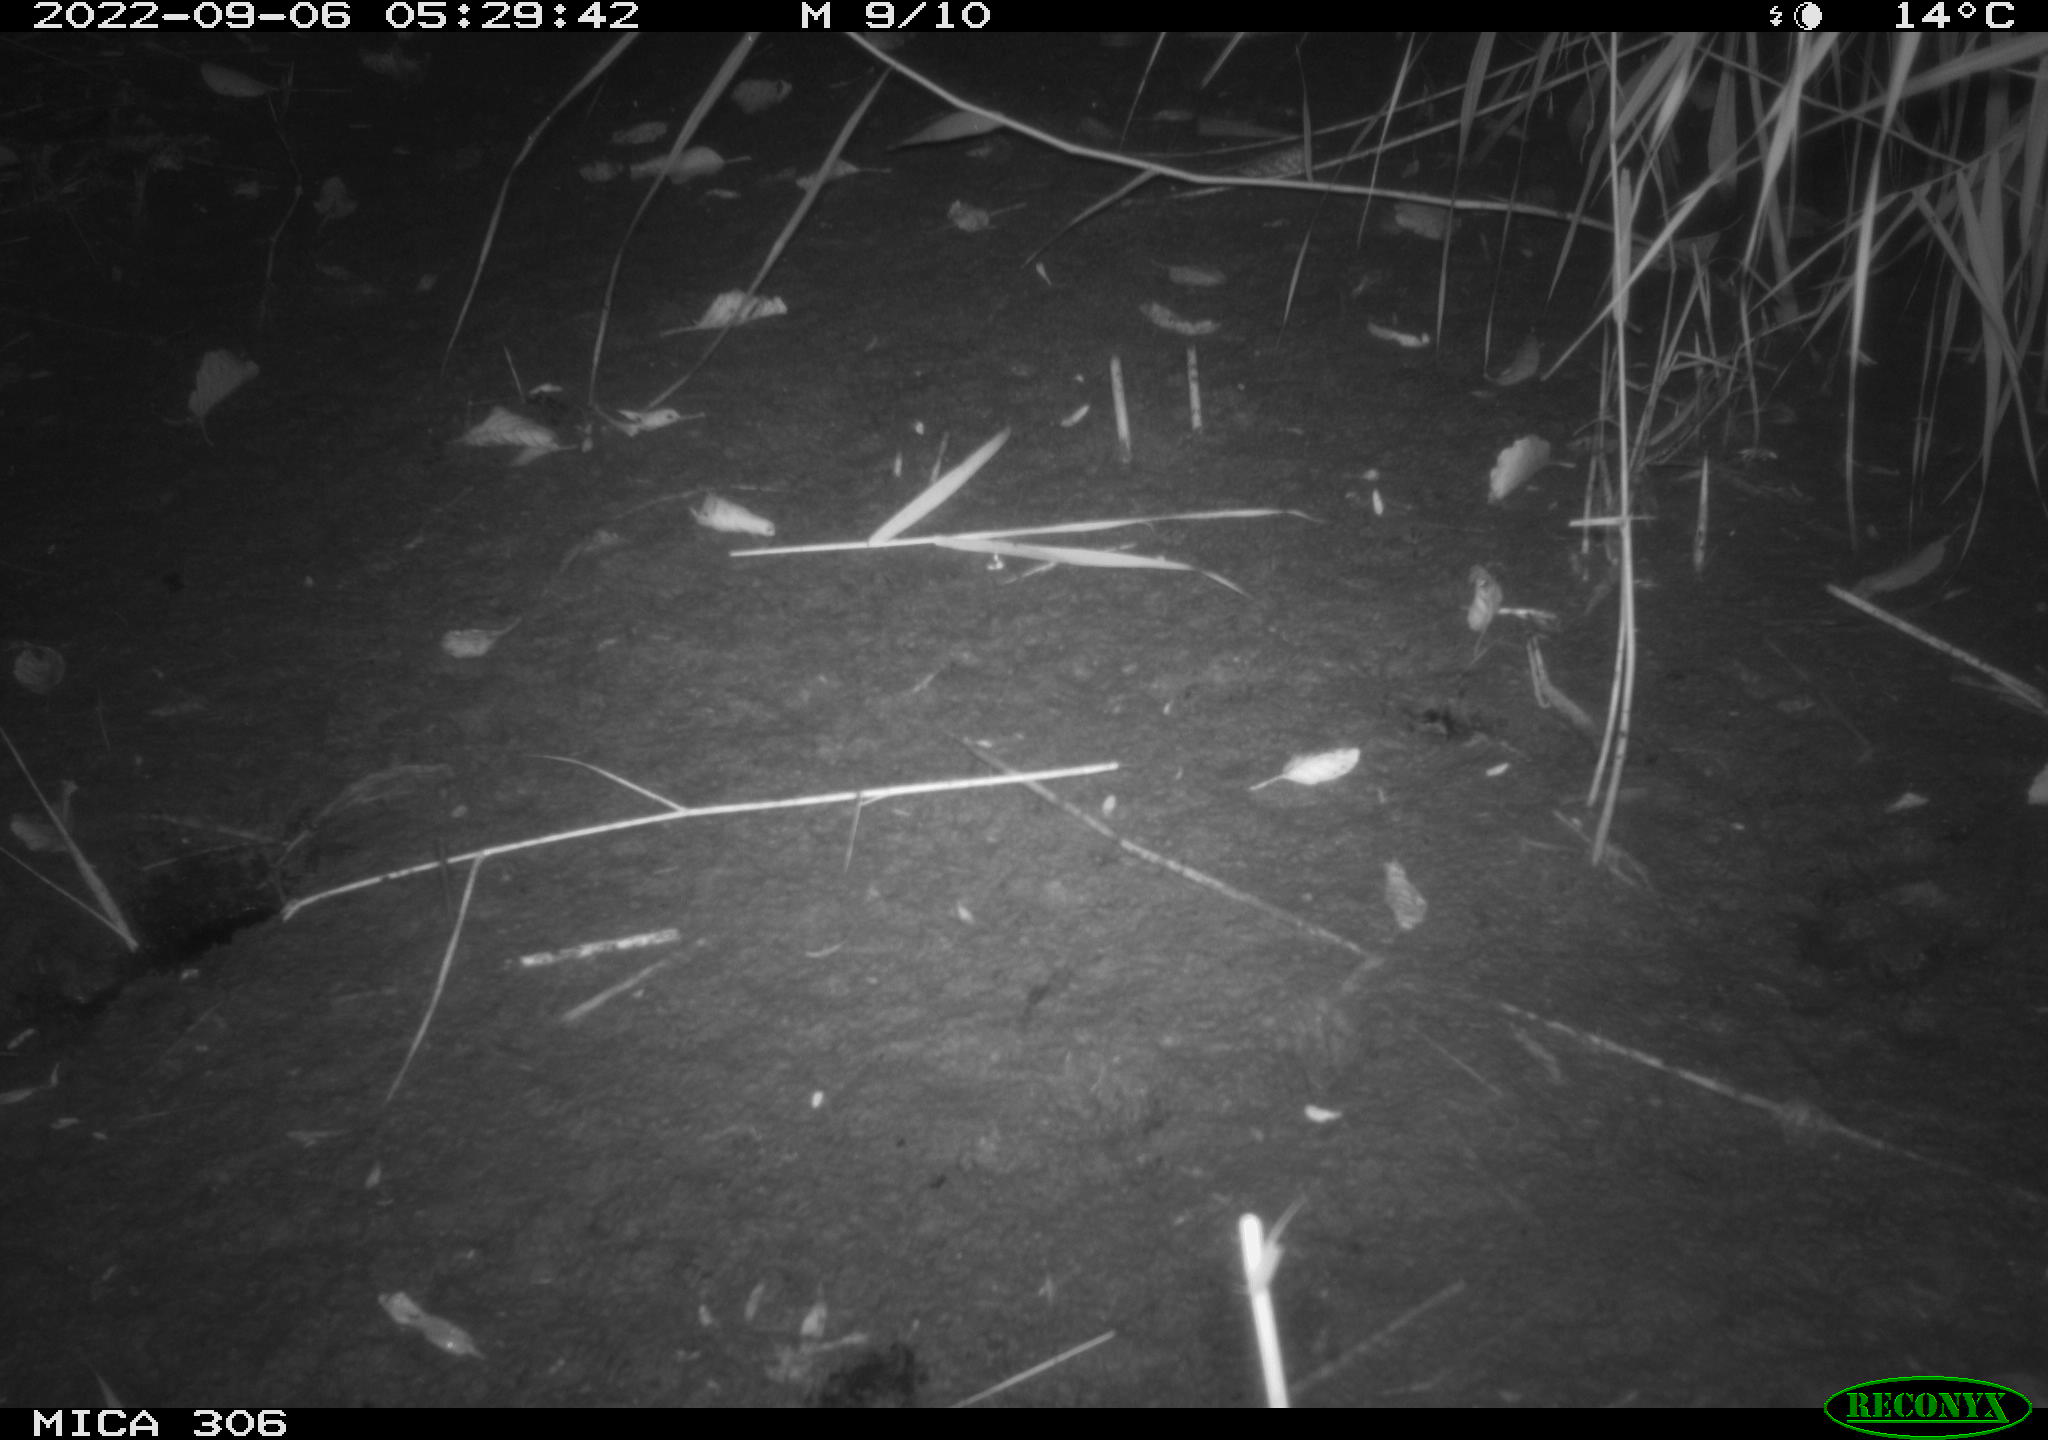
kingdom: Animalia
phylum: Chordata
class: Mammalia
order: Rodentia
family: Muridae
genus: Rattus
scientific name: Rattus norvegicus
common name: Brown rat
